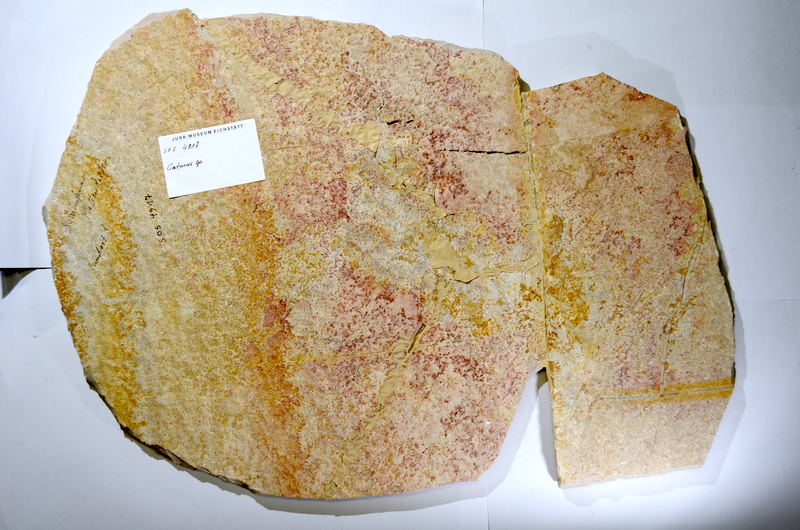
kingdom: Animalia
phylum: Chordata
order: Amiiformes
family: Caturidae
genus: Caturus
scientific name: Caturus
